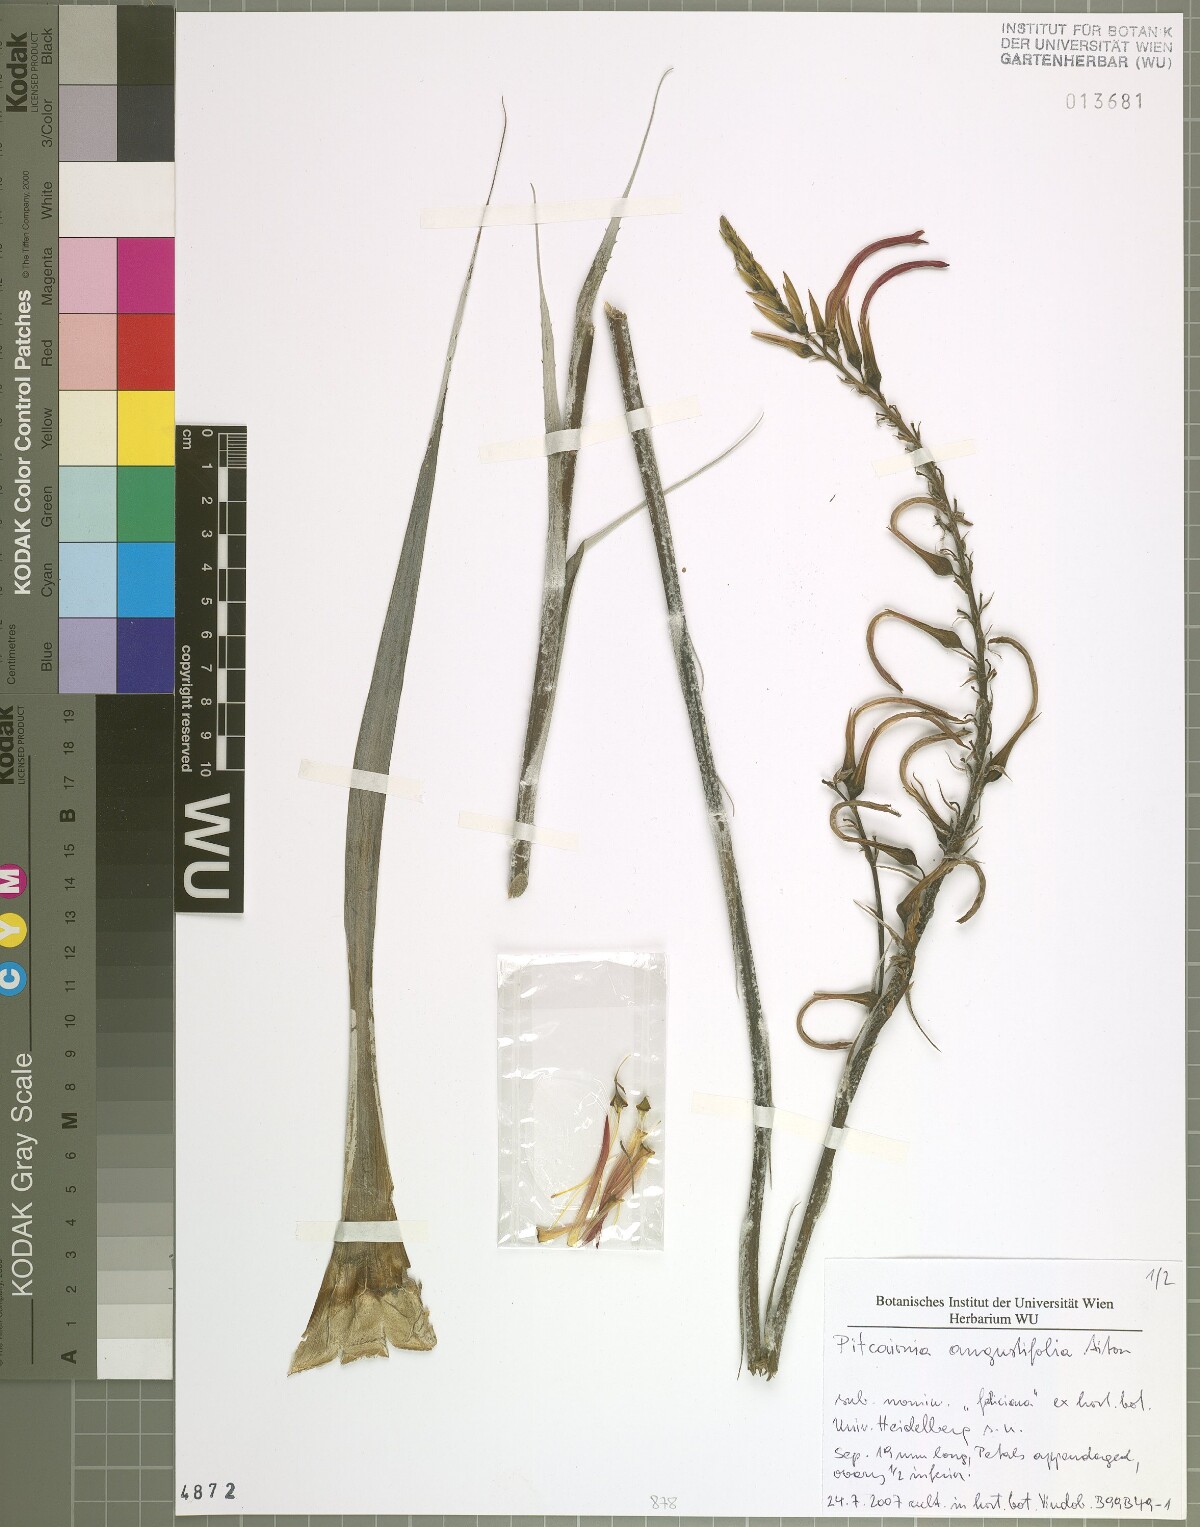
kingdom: Plantae
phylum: Tracheophyta
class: Liliopsida
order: Poales
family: Bromeliaceae
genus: Pitcairnia
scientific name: Pitcairnia angustifolia
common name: Clapper
